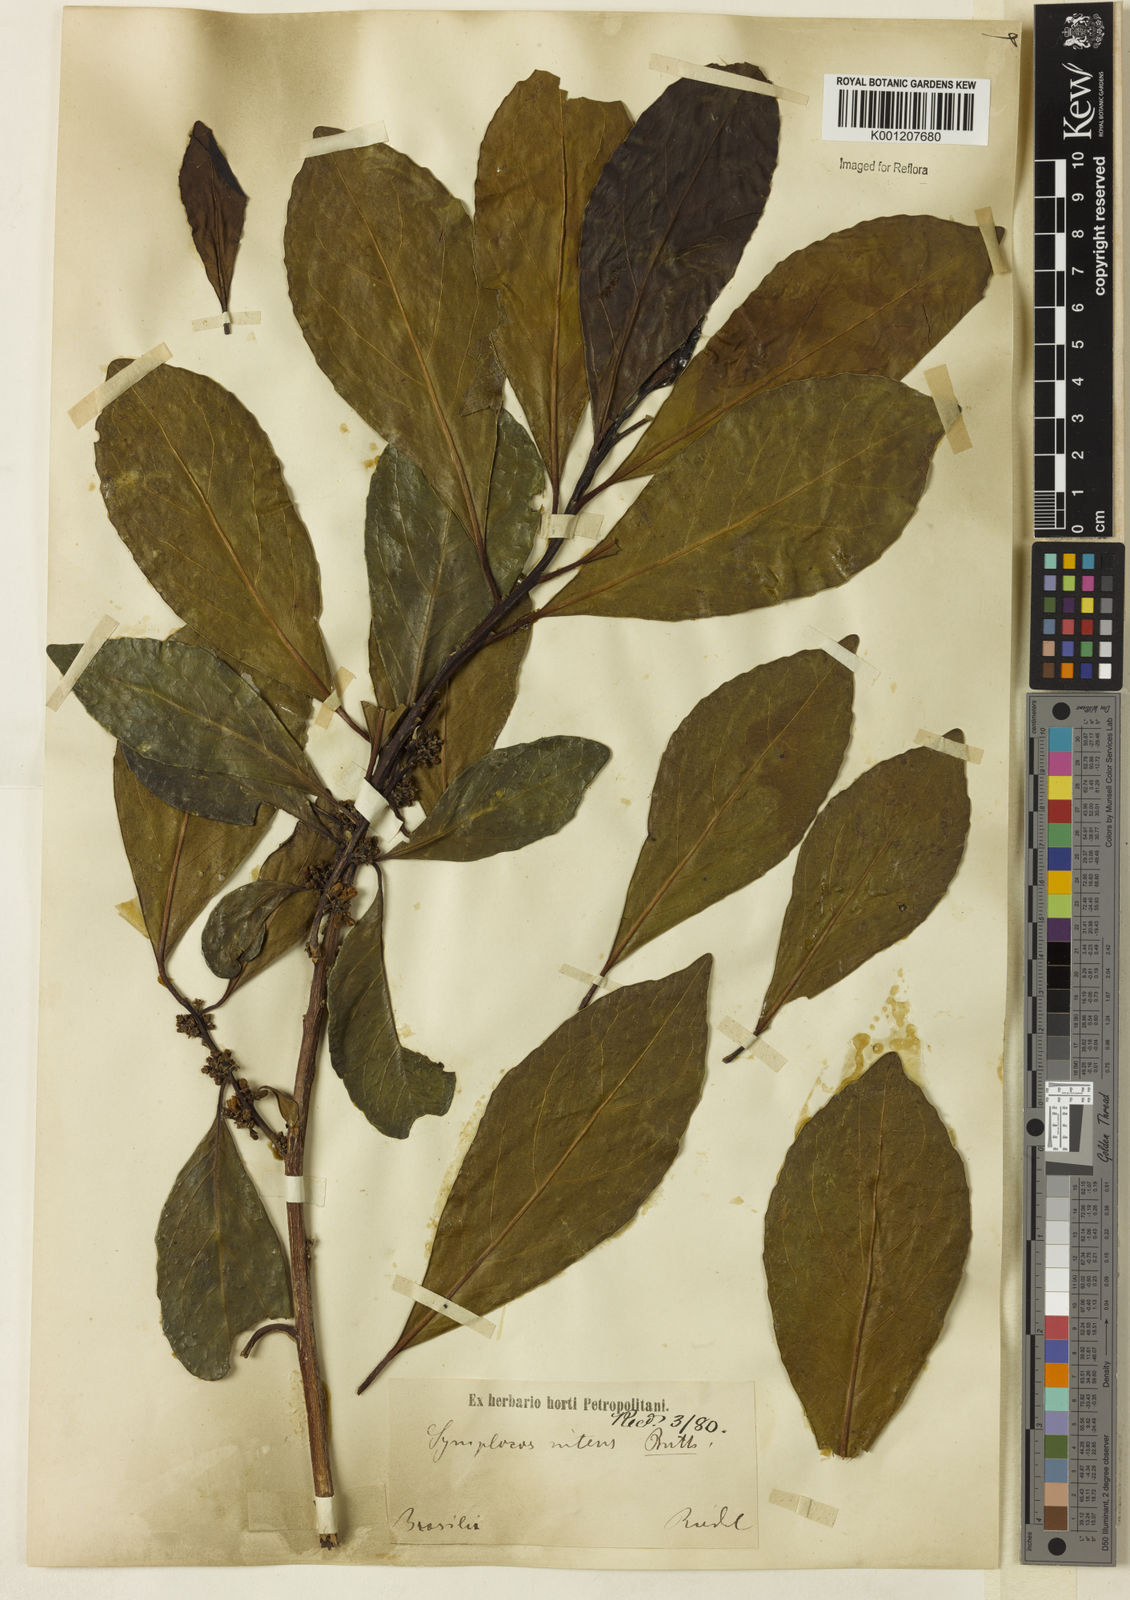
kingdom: Plantae
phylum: Tracheophyta
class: Magnoliopsida
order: Ericales
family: Symplocaceae
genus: Symplocos
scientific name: Symplocos nitens
